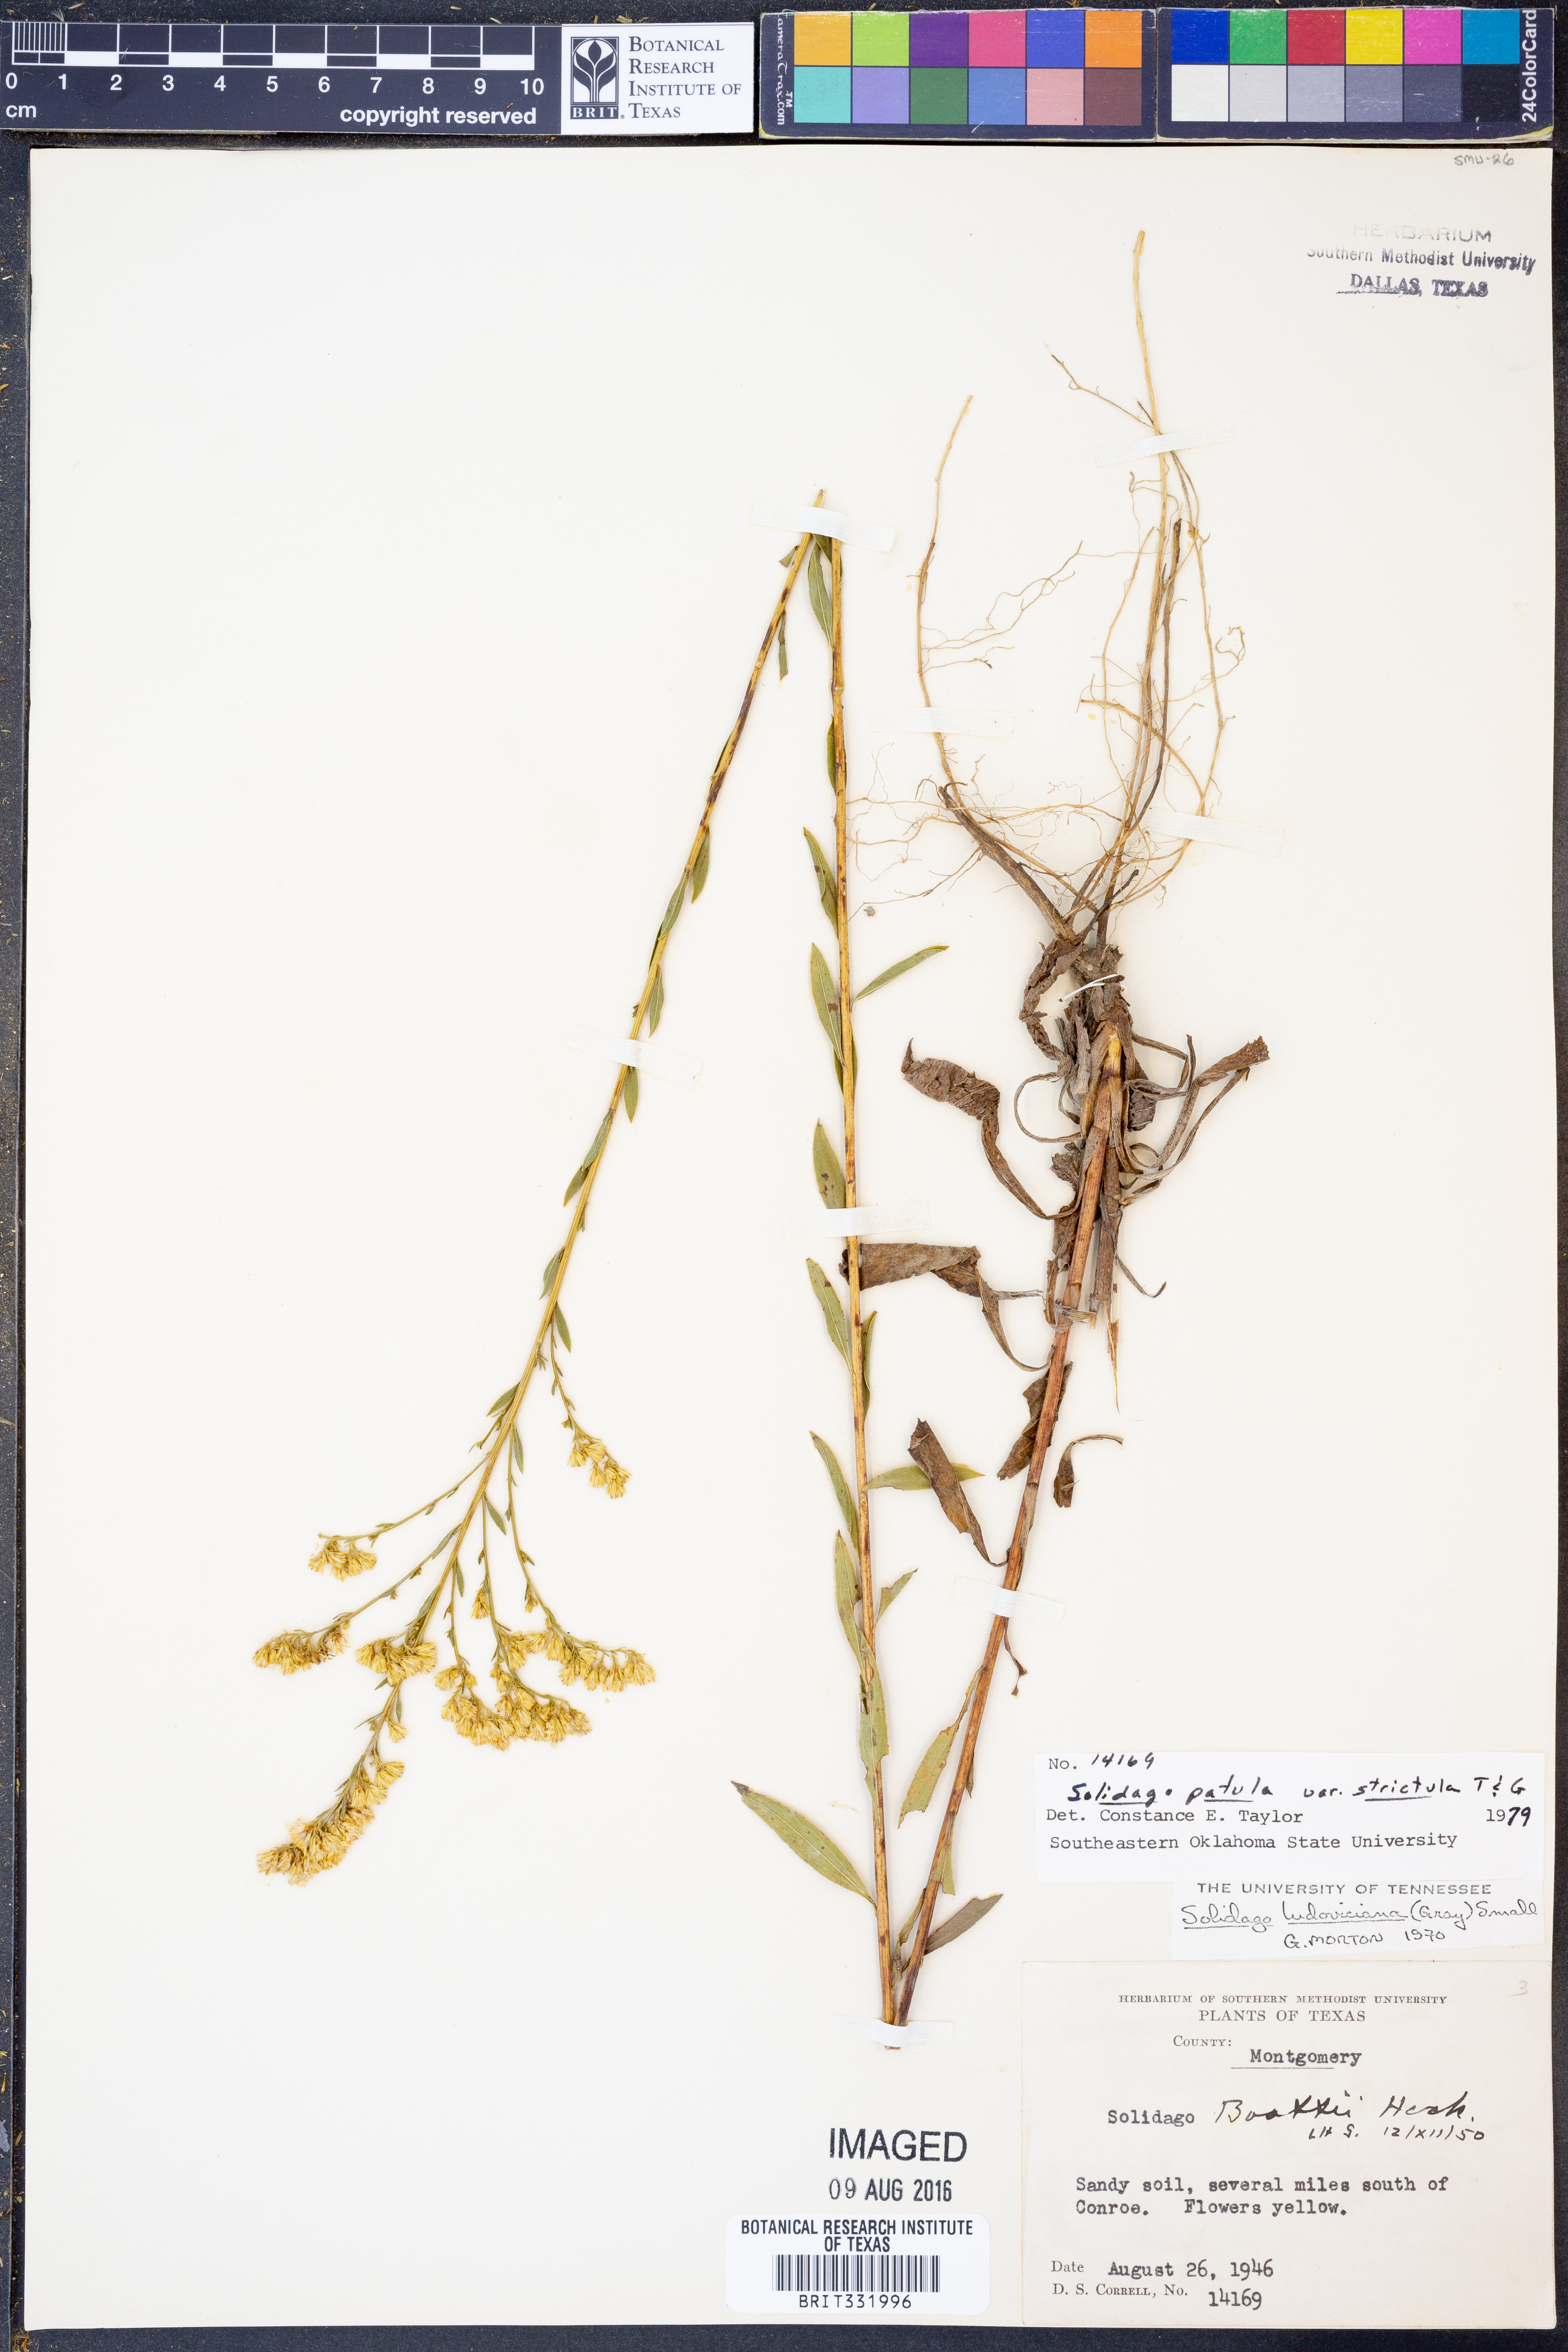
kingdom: Plantae
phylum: Tracheophyta
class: Magnoliopsida
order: Asterales
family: Asteraceae
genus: Solidago
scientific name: Solidago salicina
